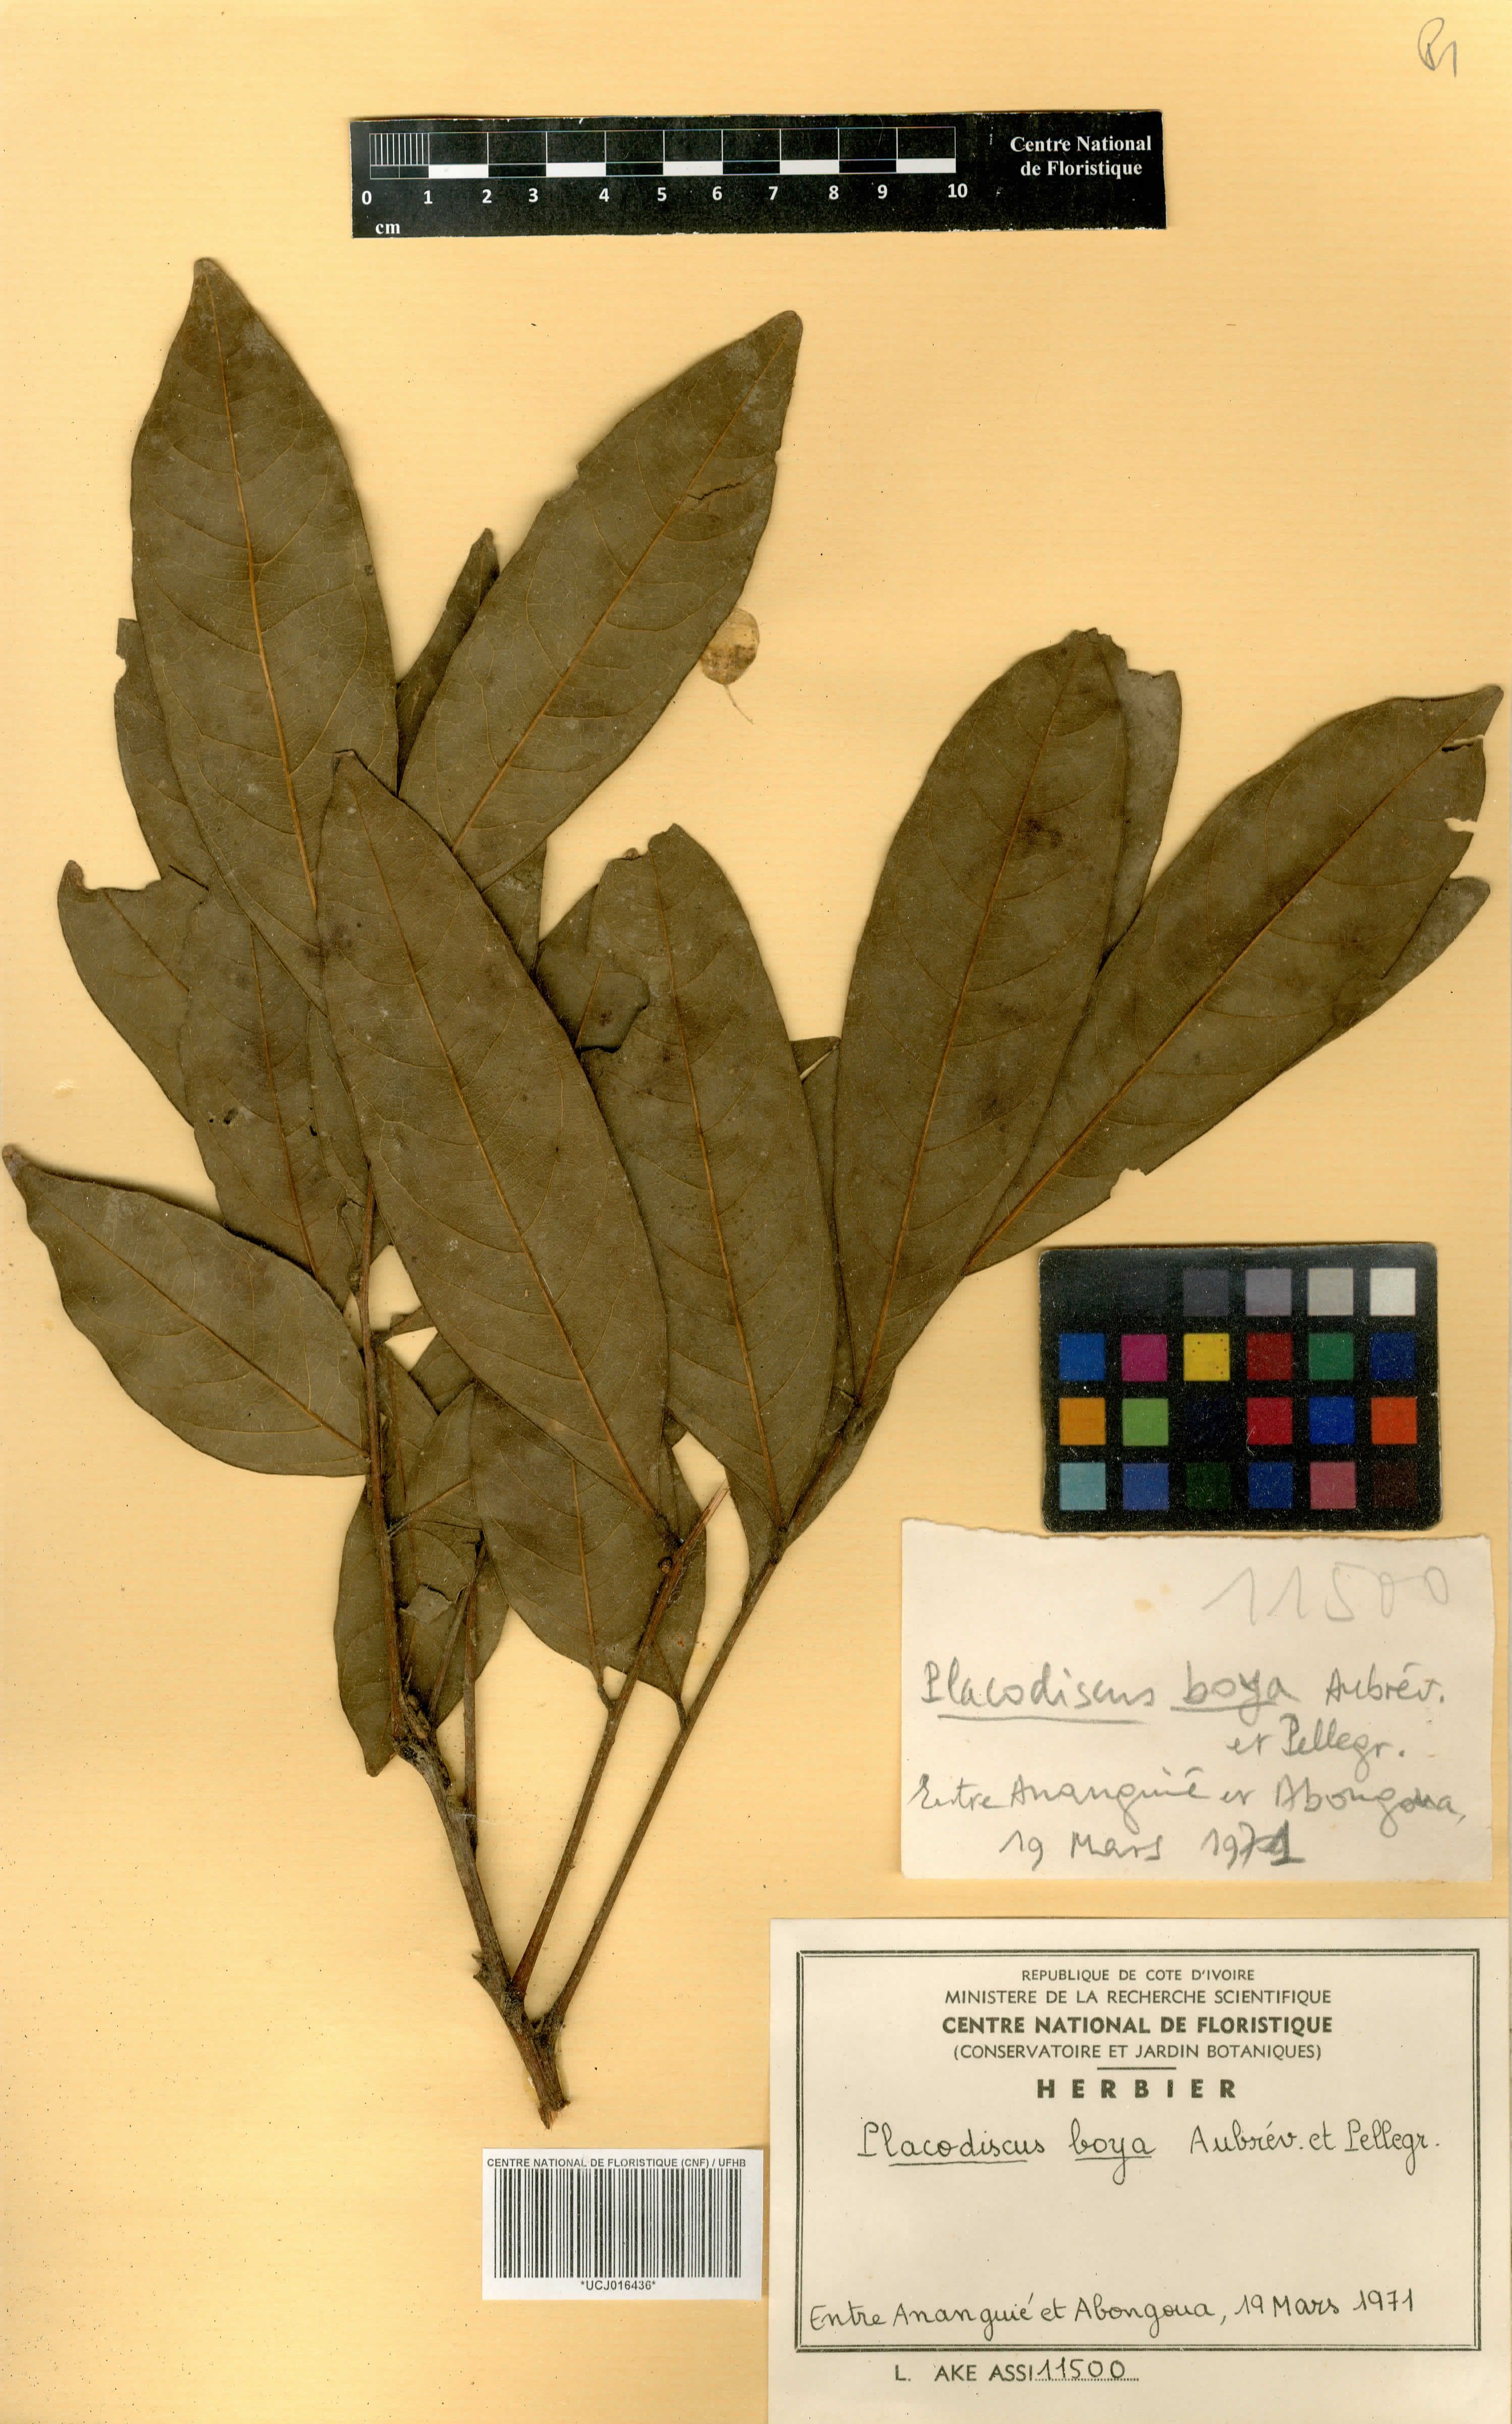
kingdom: Plantae
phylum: Tracheophyta
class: Magnoliopsida
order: Sapindales
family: Sapindaceae
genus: Placodiscus
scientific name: Placodiscus boya
